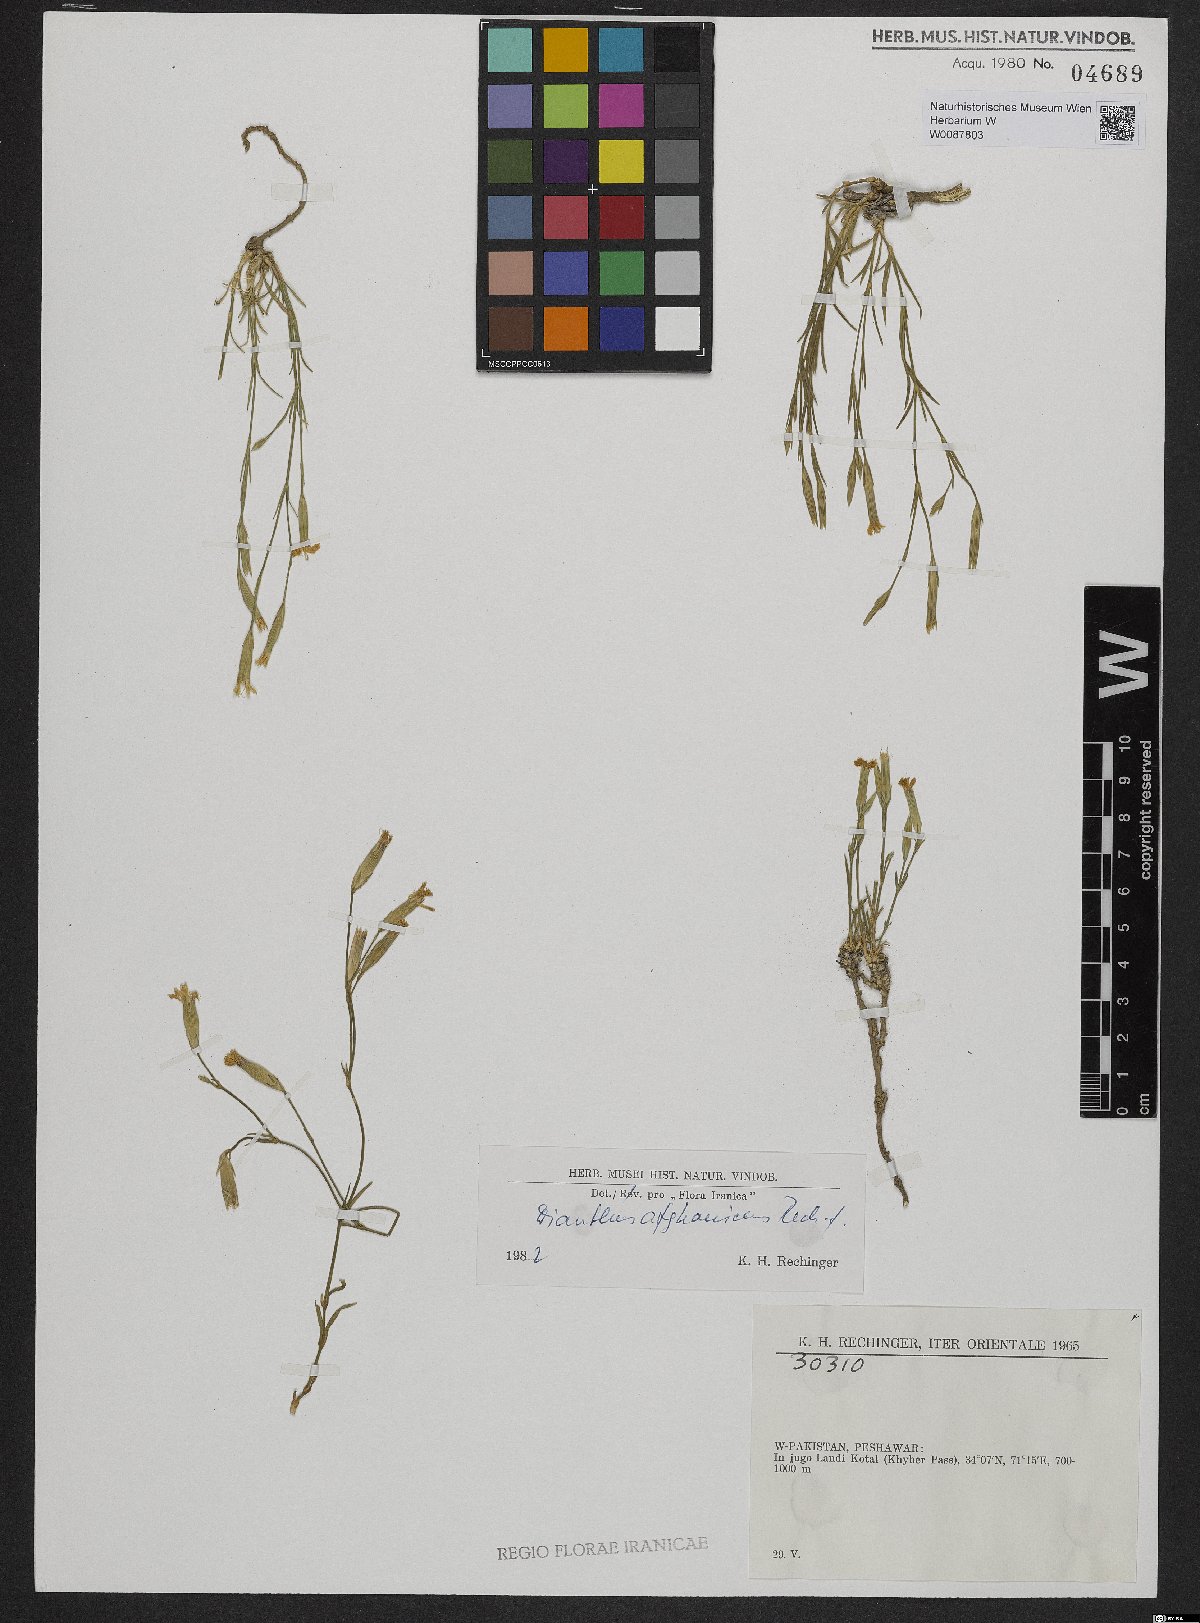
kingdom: Plantae
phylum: Tracheophyta
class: Magnoliopsida
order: Caryophyllales
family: Caryophyllaceae
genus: Dianthus
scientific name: Dianthus afghanicus
